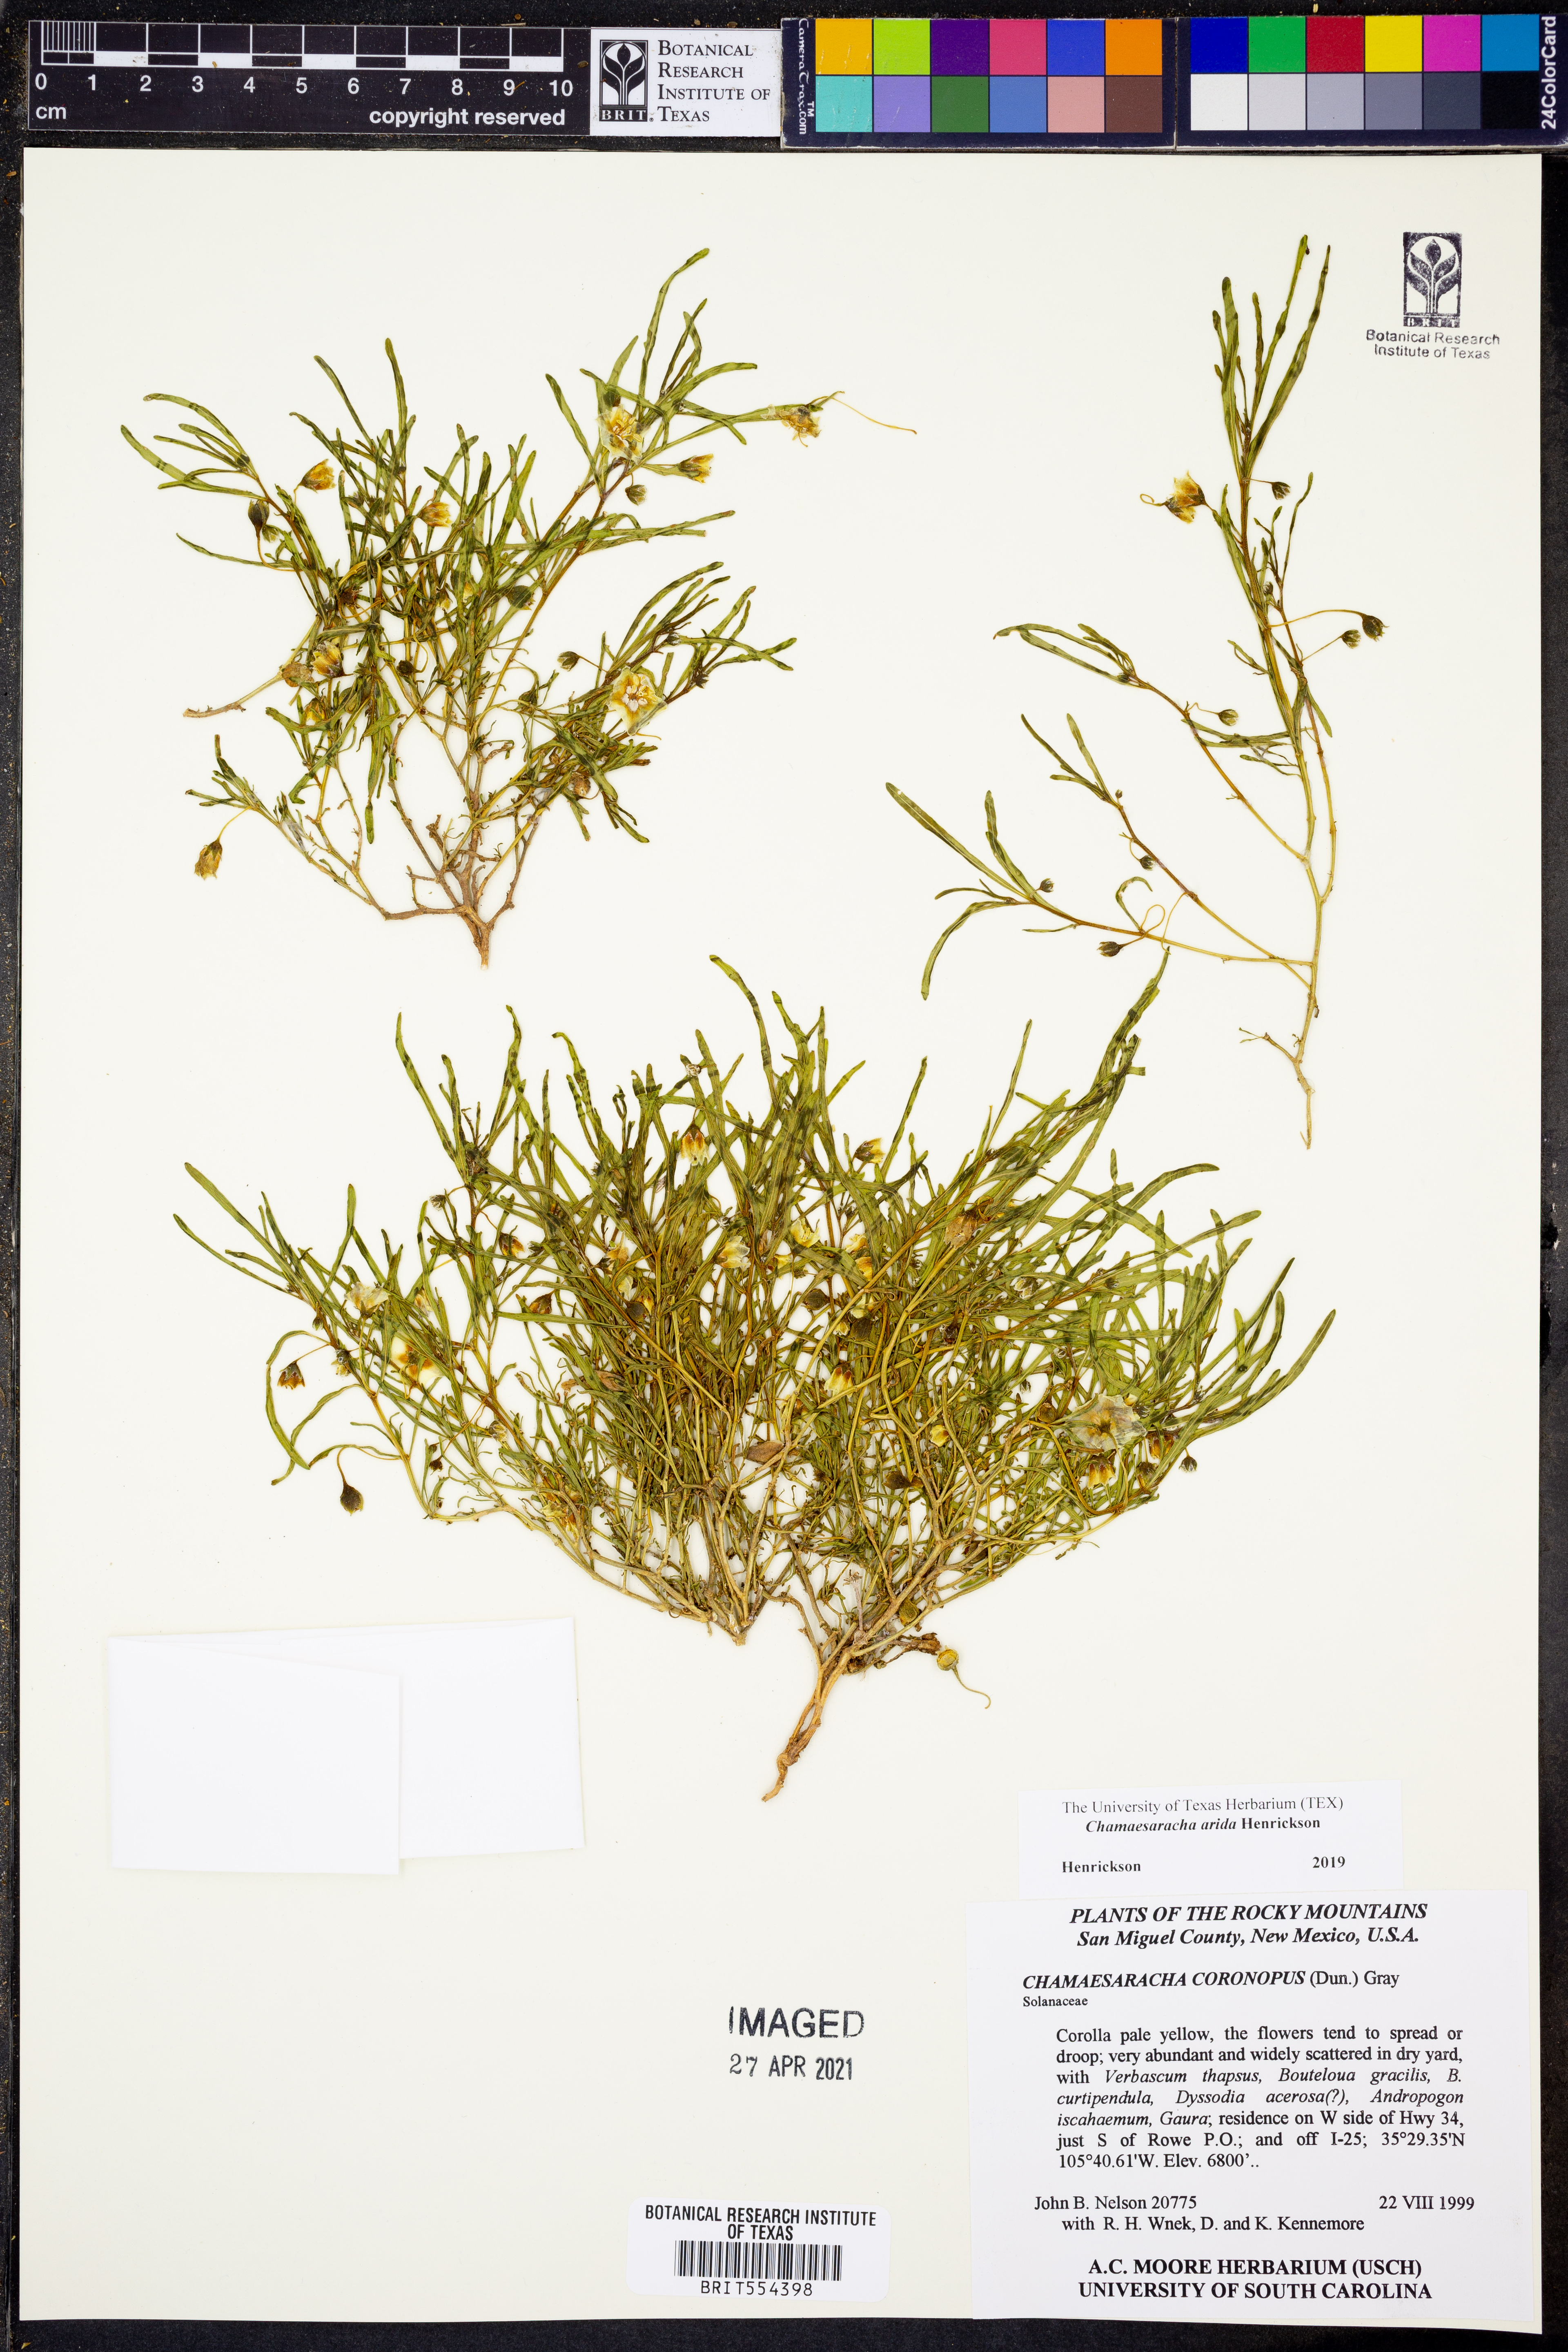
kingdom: Plantae
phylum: Tracheophyta
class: Magnoliopsida
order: Solanales
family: Solanaceae
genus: Chamaesaracha
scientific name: Chamaesaracha arida
